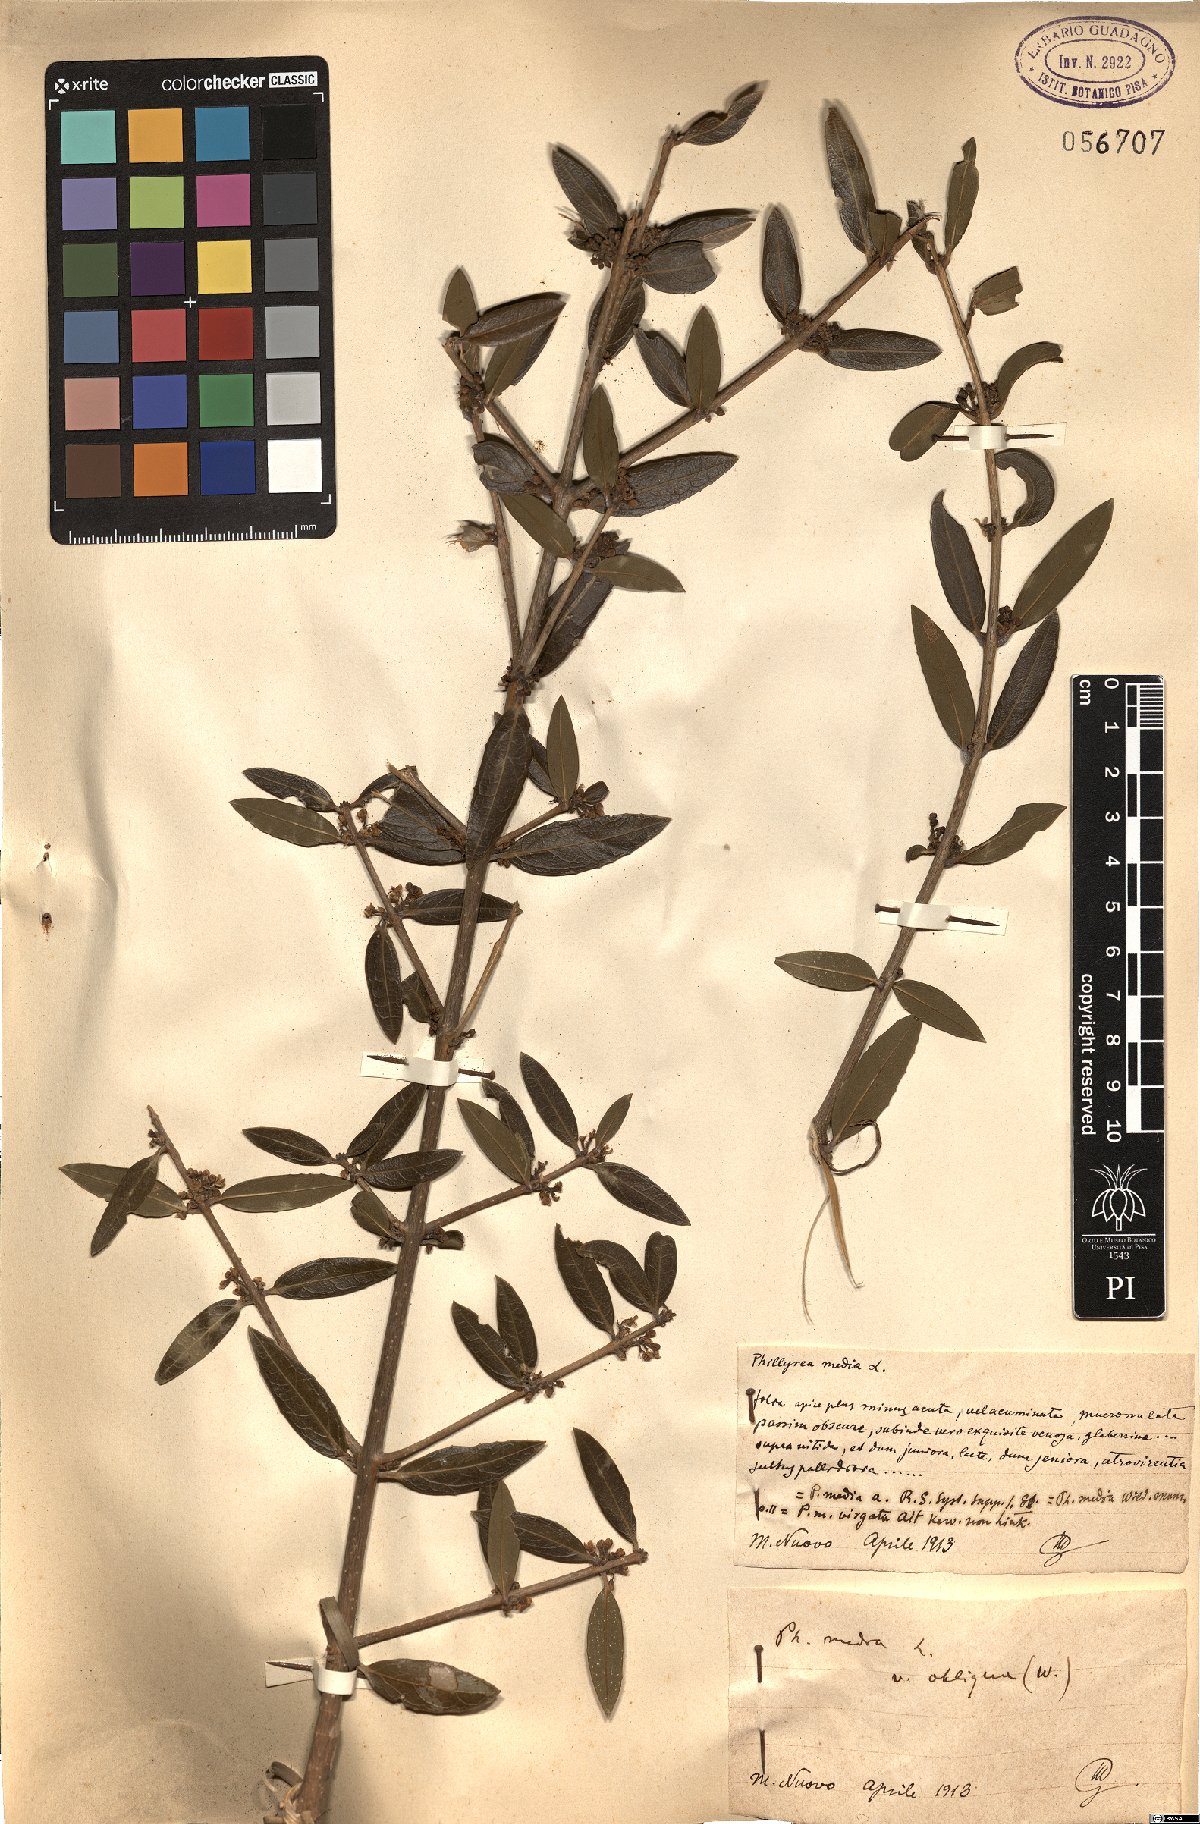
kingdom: Plantae
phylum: Tracheophyta
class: Magnoliopsida
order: Lamiales
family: Oleaceae
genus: Phillyrea
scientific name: Phillyrea latifolia
